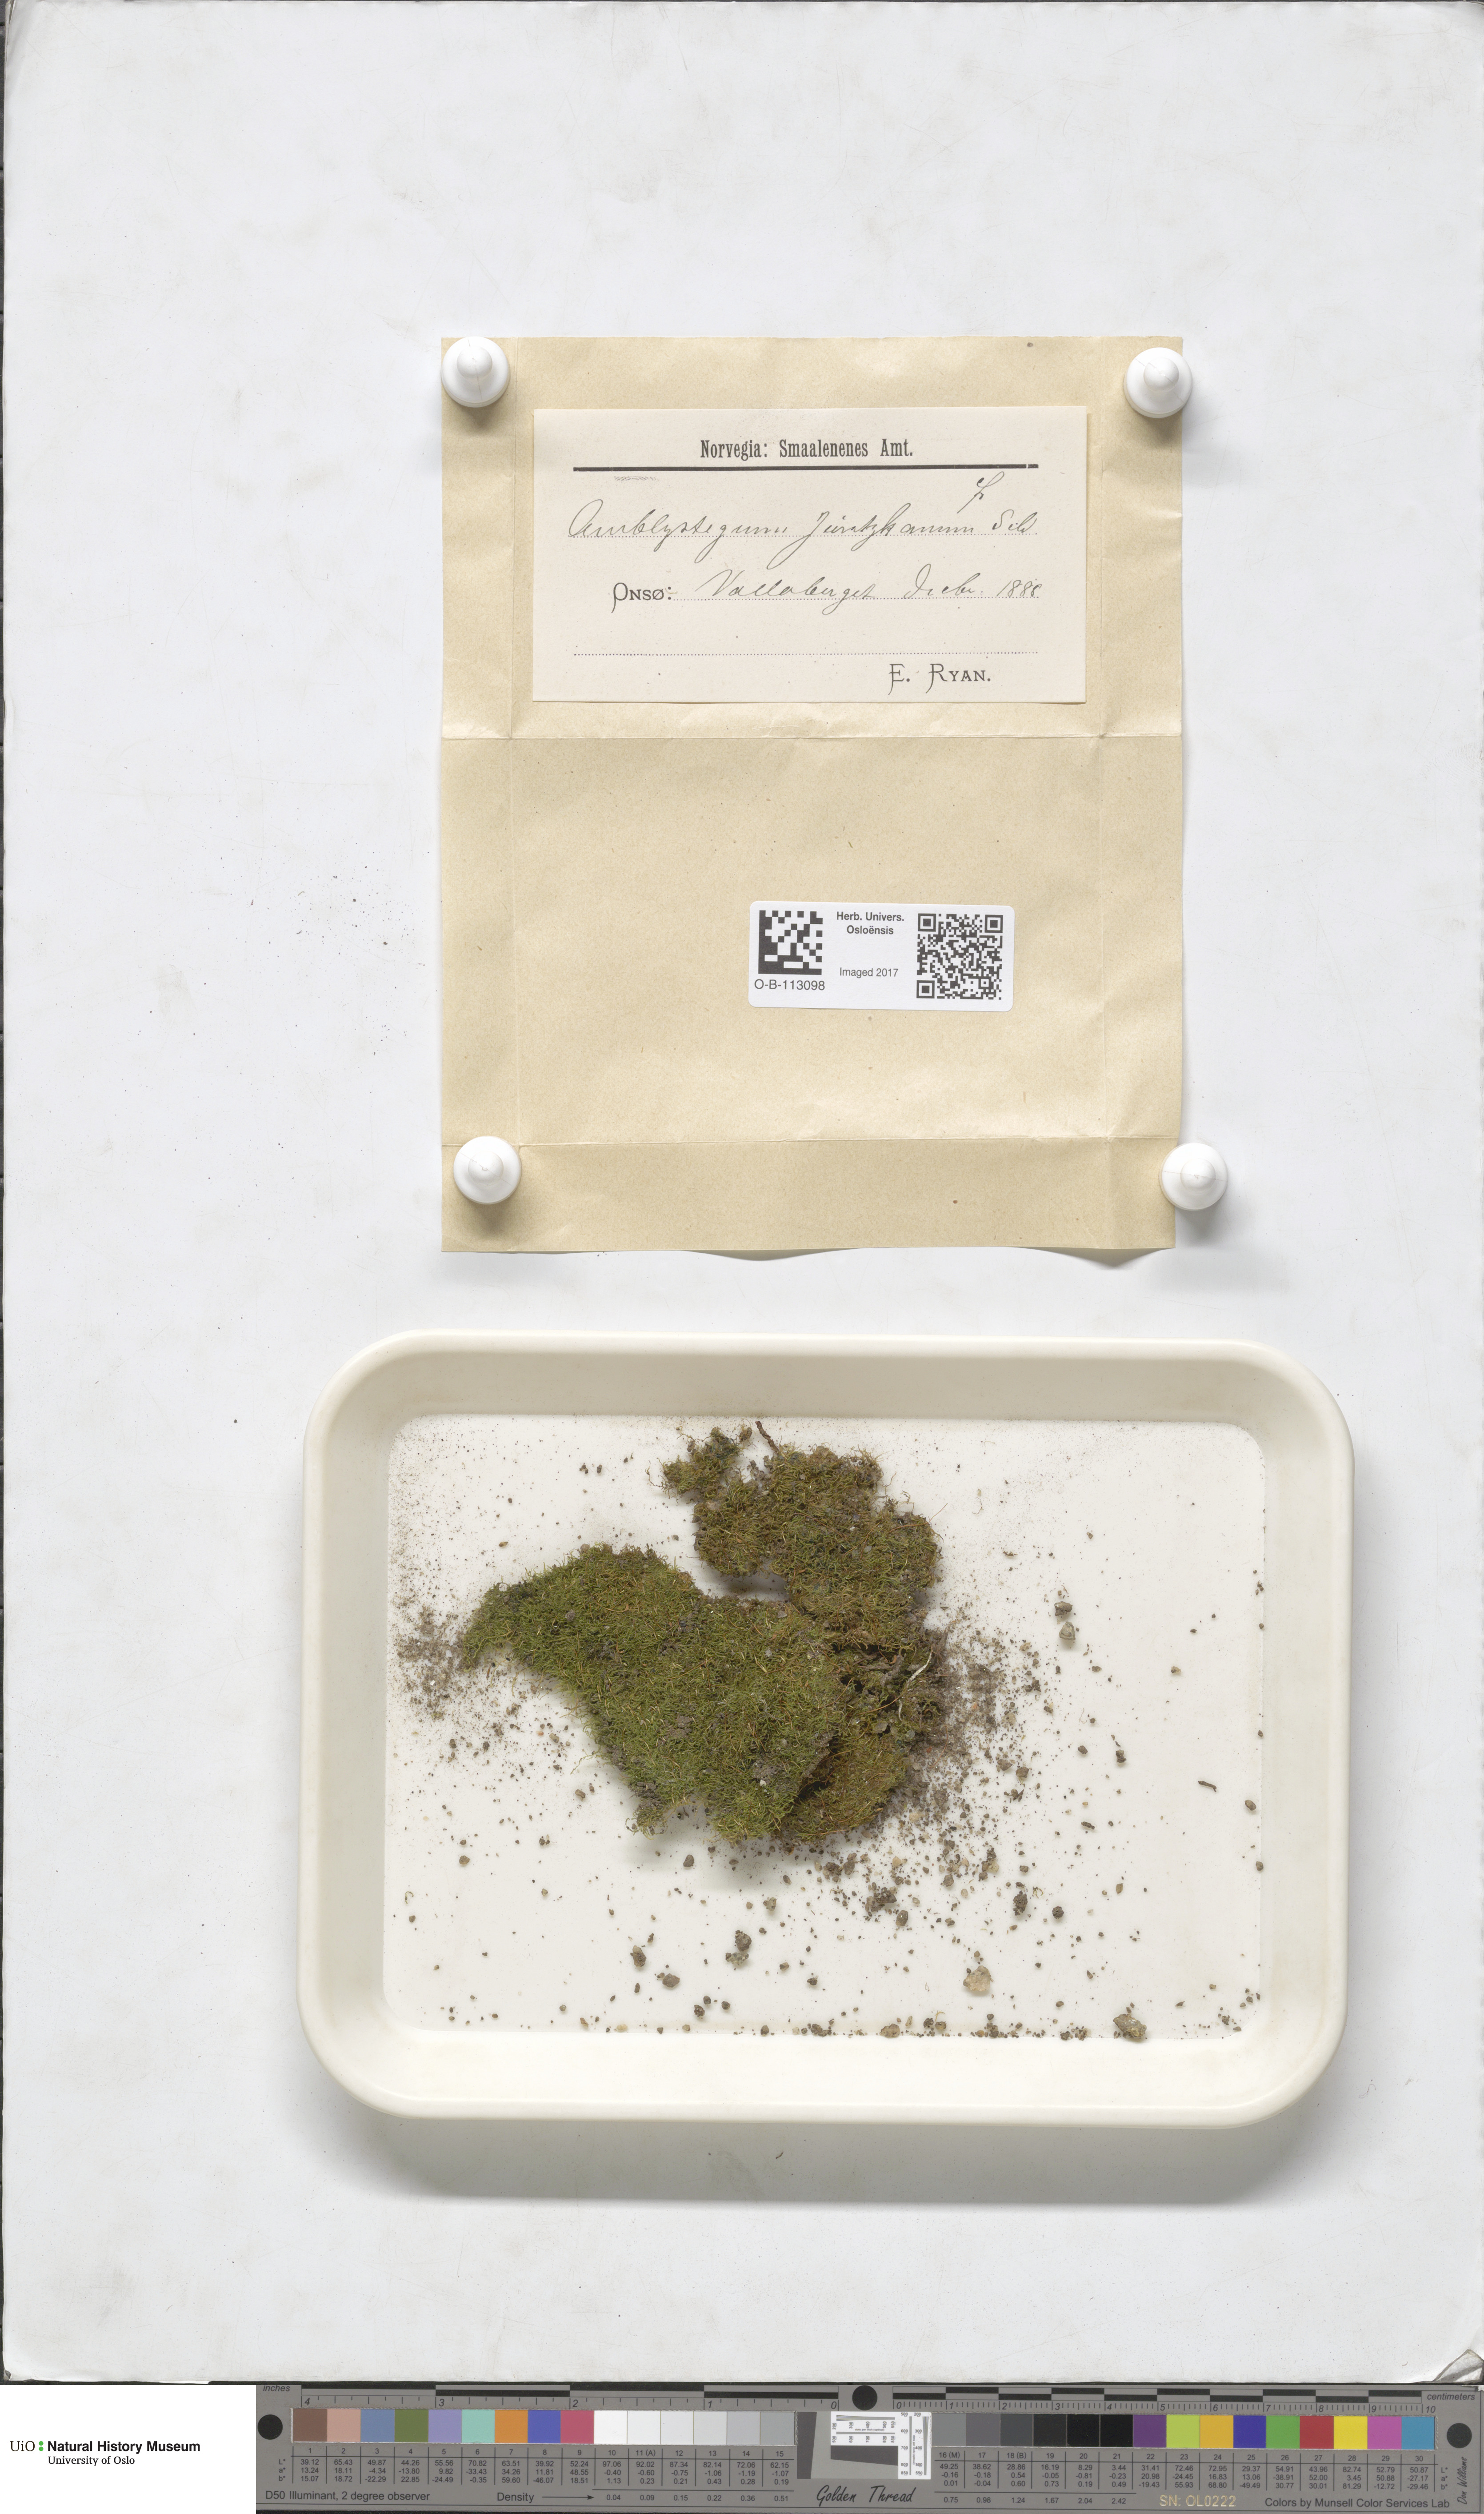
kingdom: Plantae
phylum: Bryophyta
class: Bryopsida
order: Hypnales
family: Amblystegiaceae
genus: Amblystegium
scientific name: Amblystegium serpens
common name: Jurkatzka's feather moss
